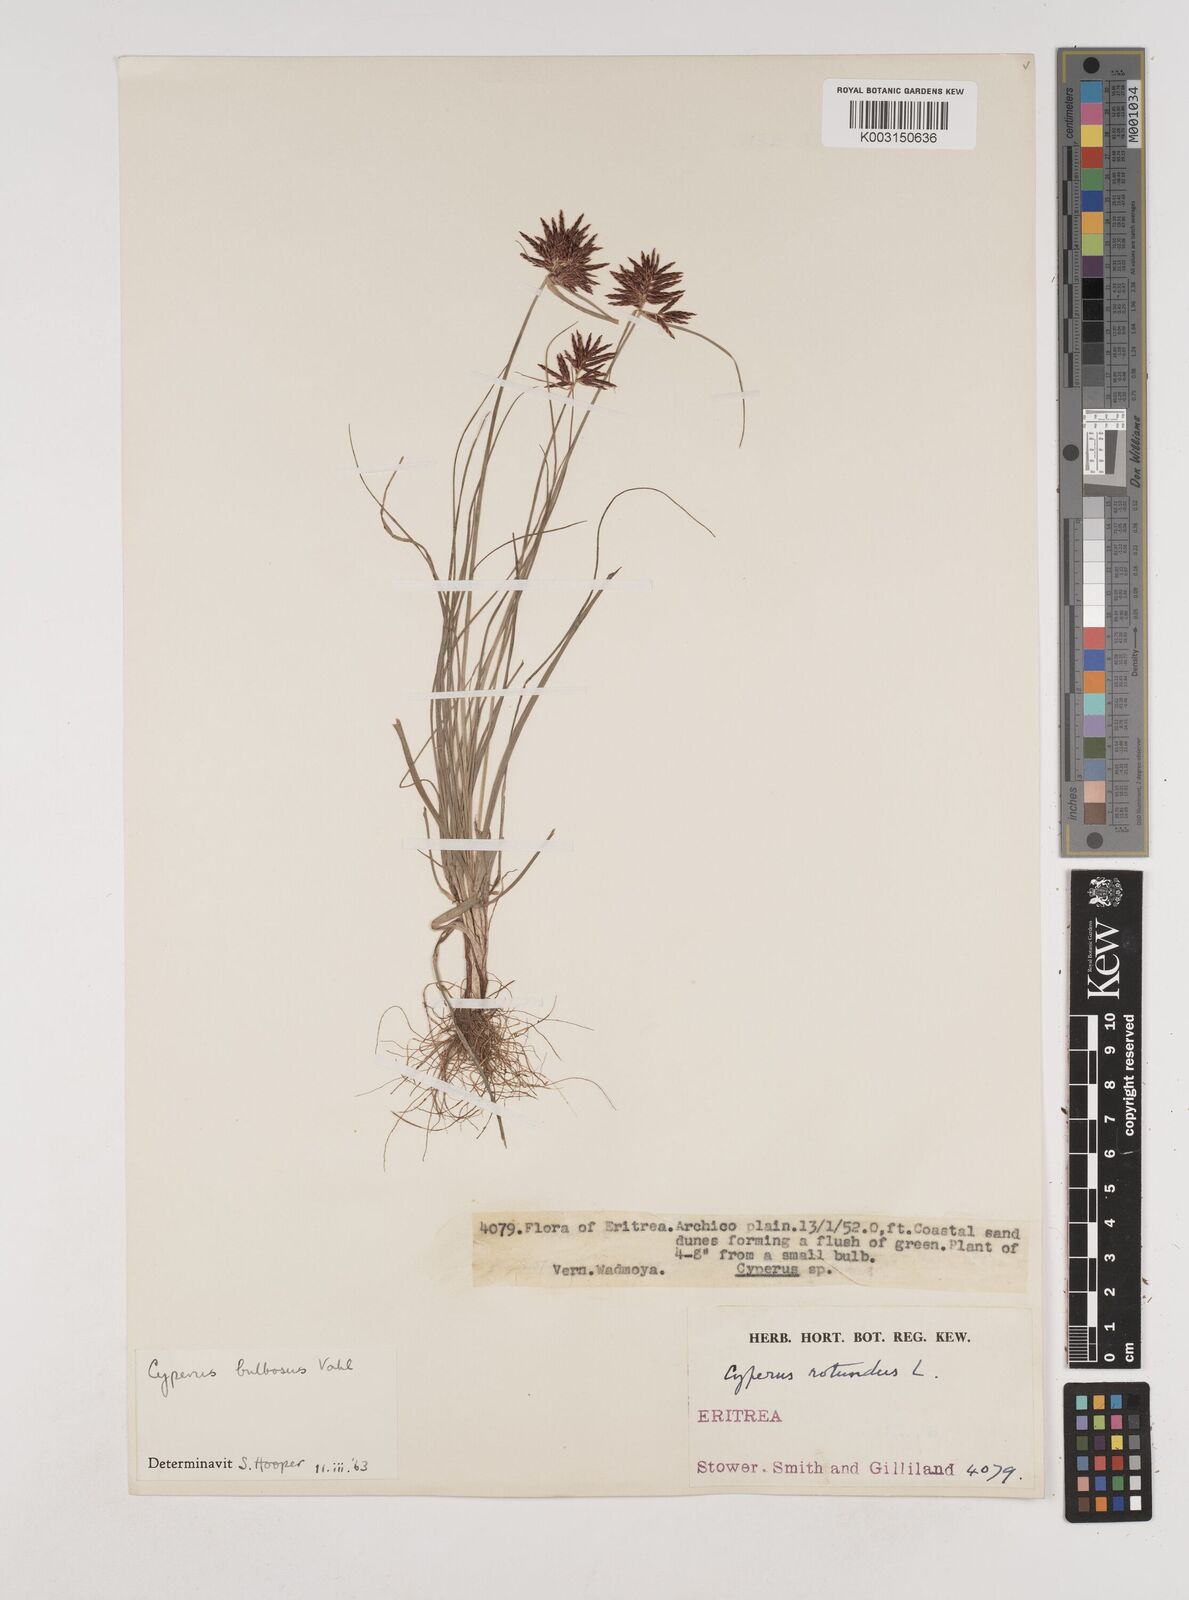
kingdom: Plantae
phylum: Tracheophyta
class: Liliopsida
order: Poales
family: Cyperaceae
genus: Cyperus
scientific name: Cyperus bulbosus
